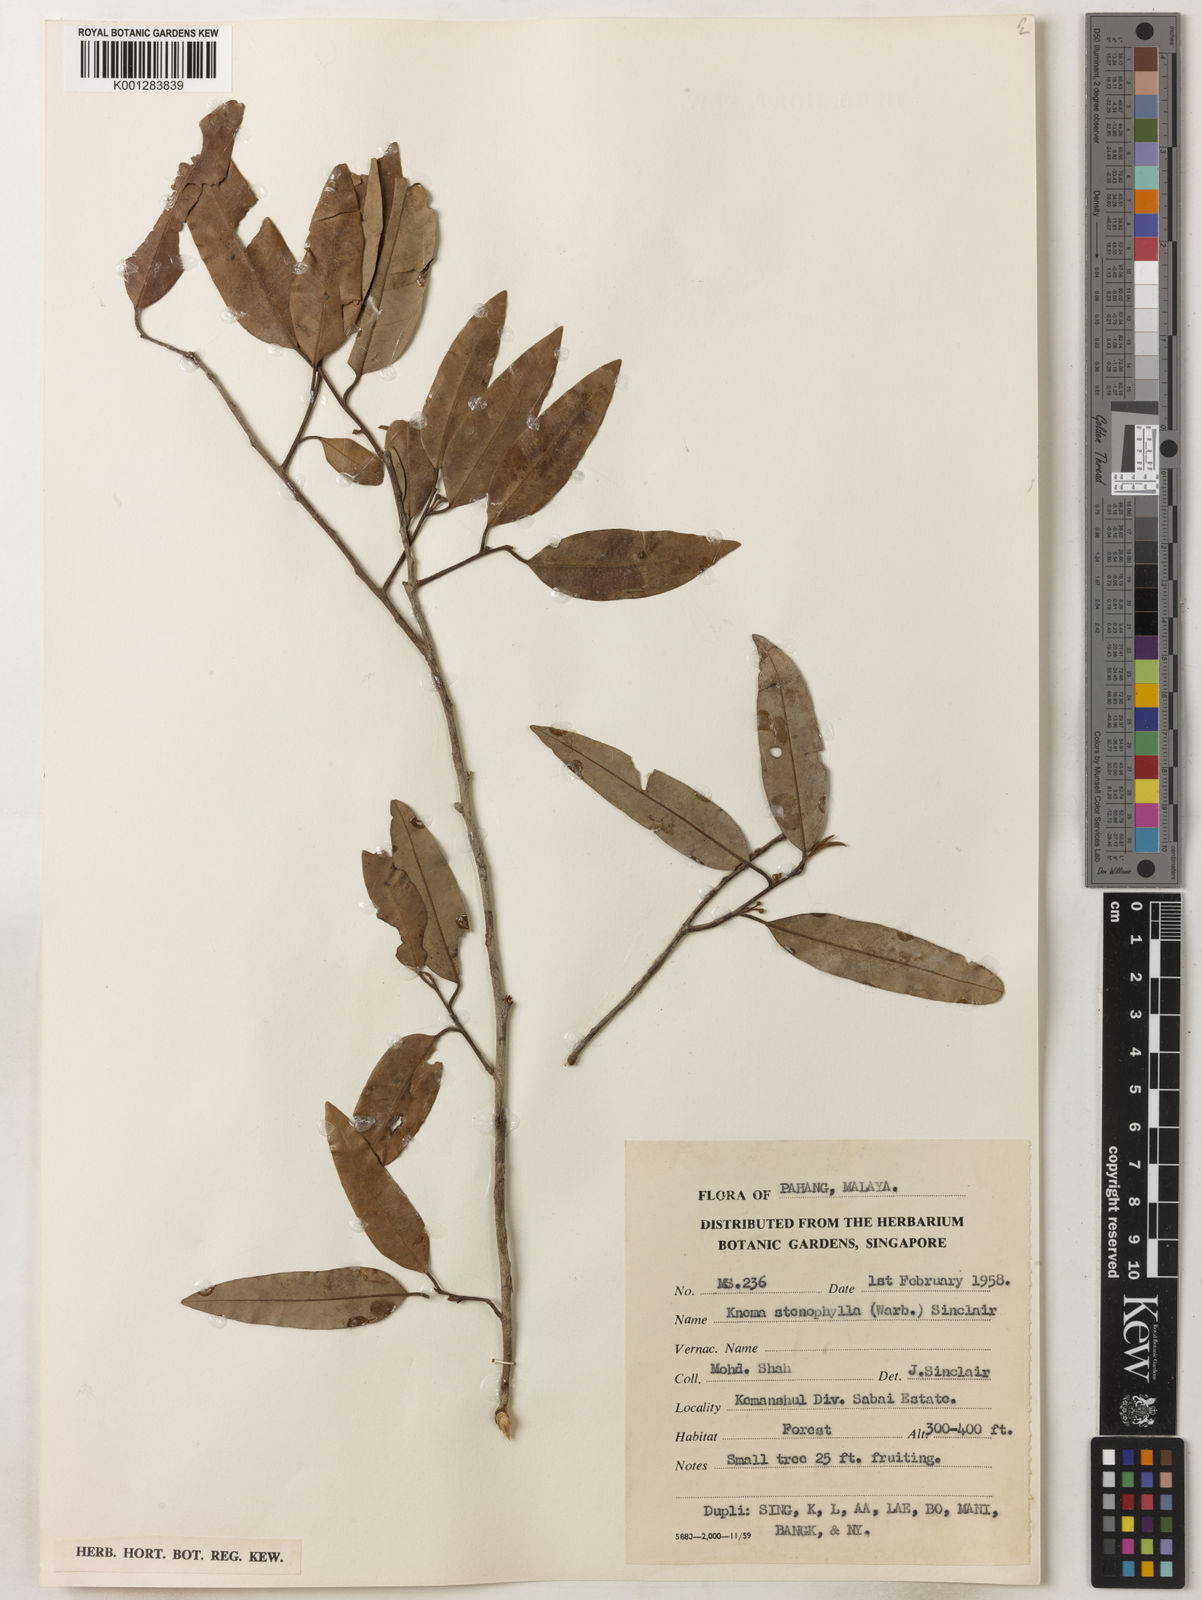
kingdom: Plantae
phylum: Tracheophyta
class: Magnoliopsida
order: Magnoliales
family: Myristicaceae
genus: Knema
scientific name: Knema stenophylla
